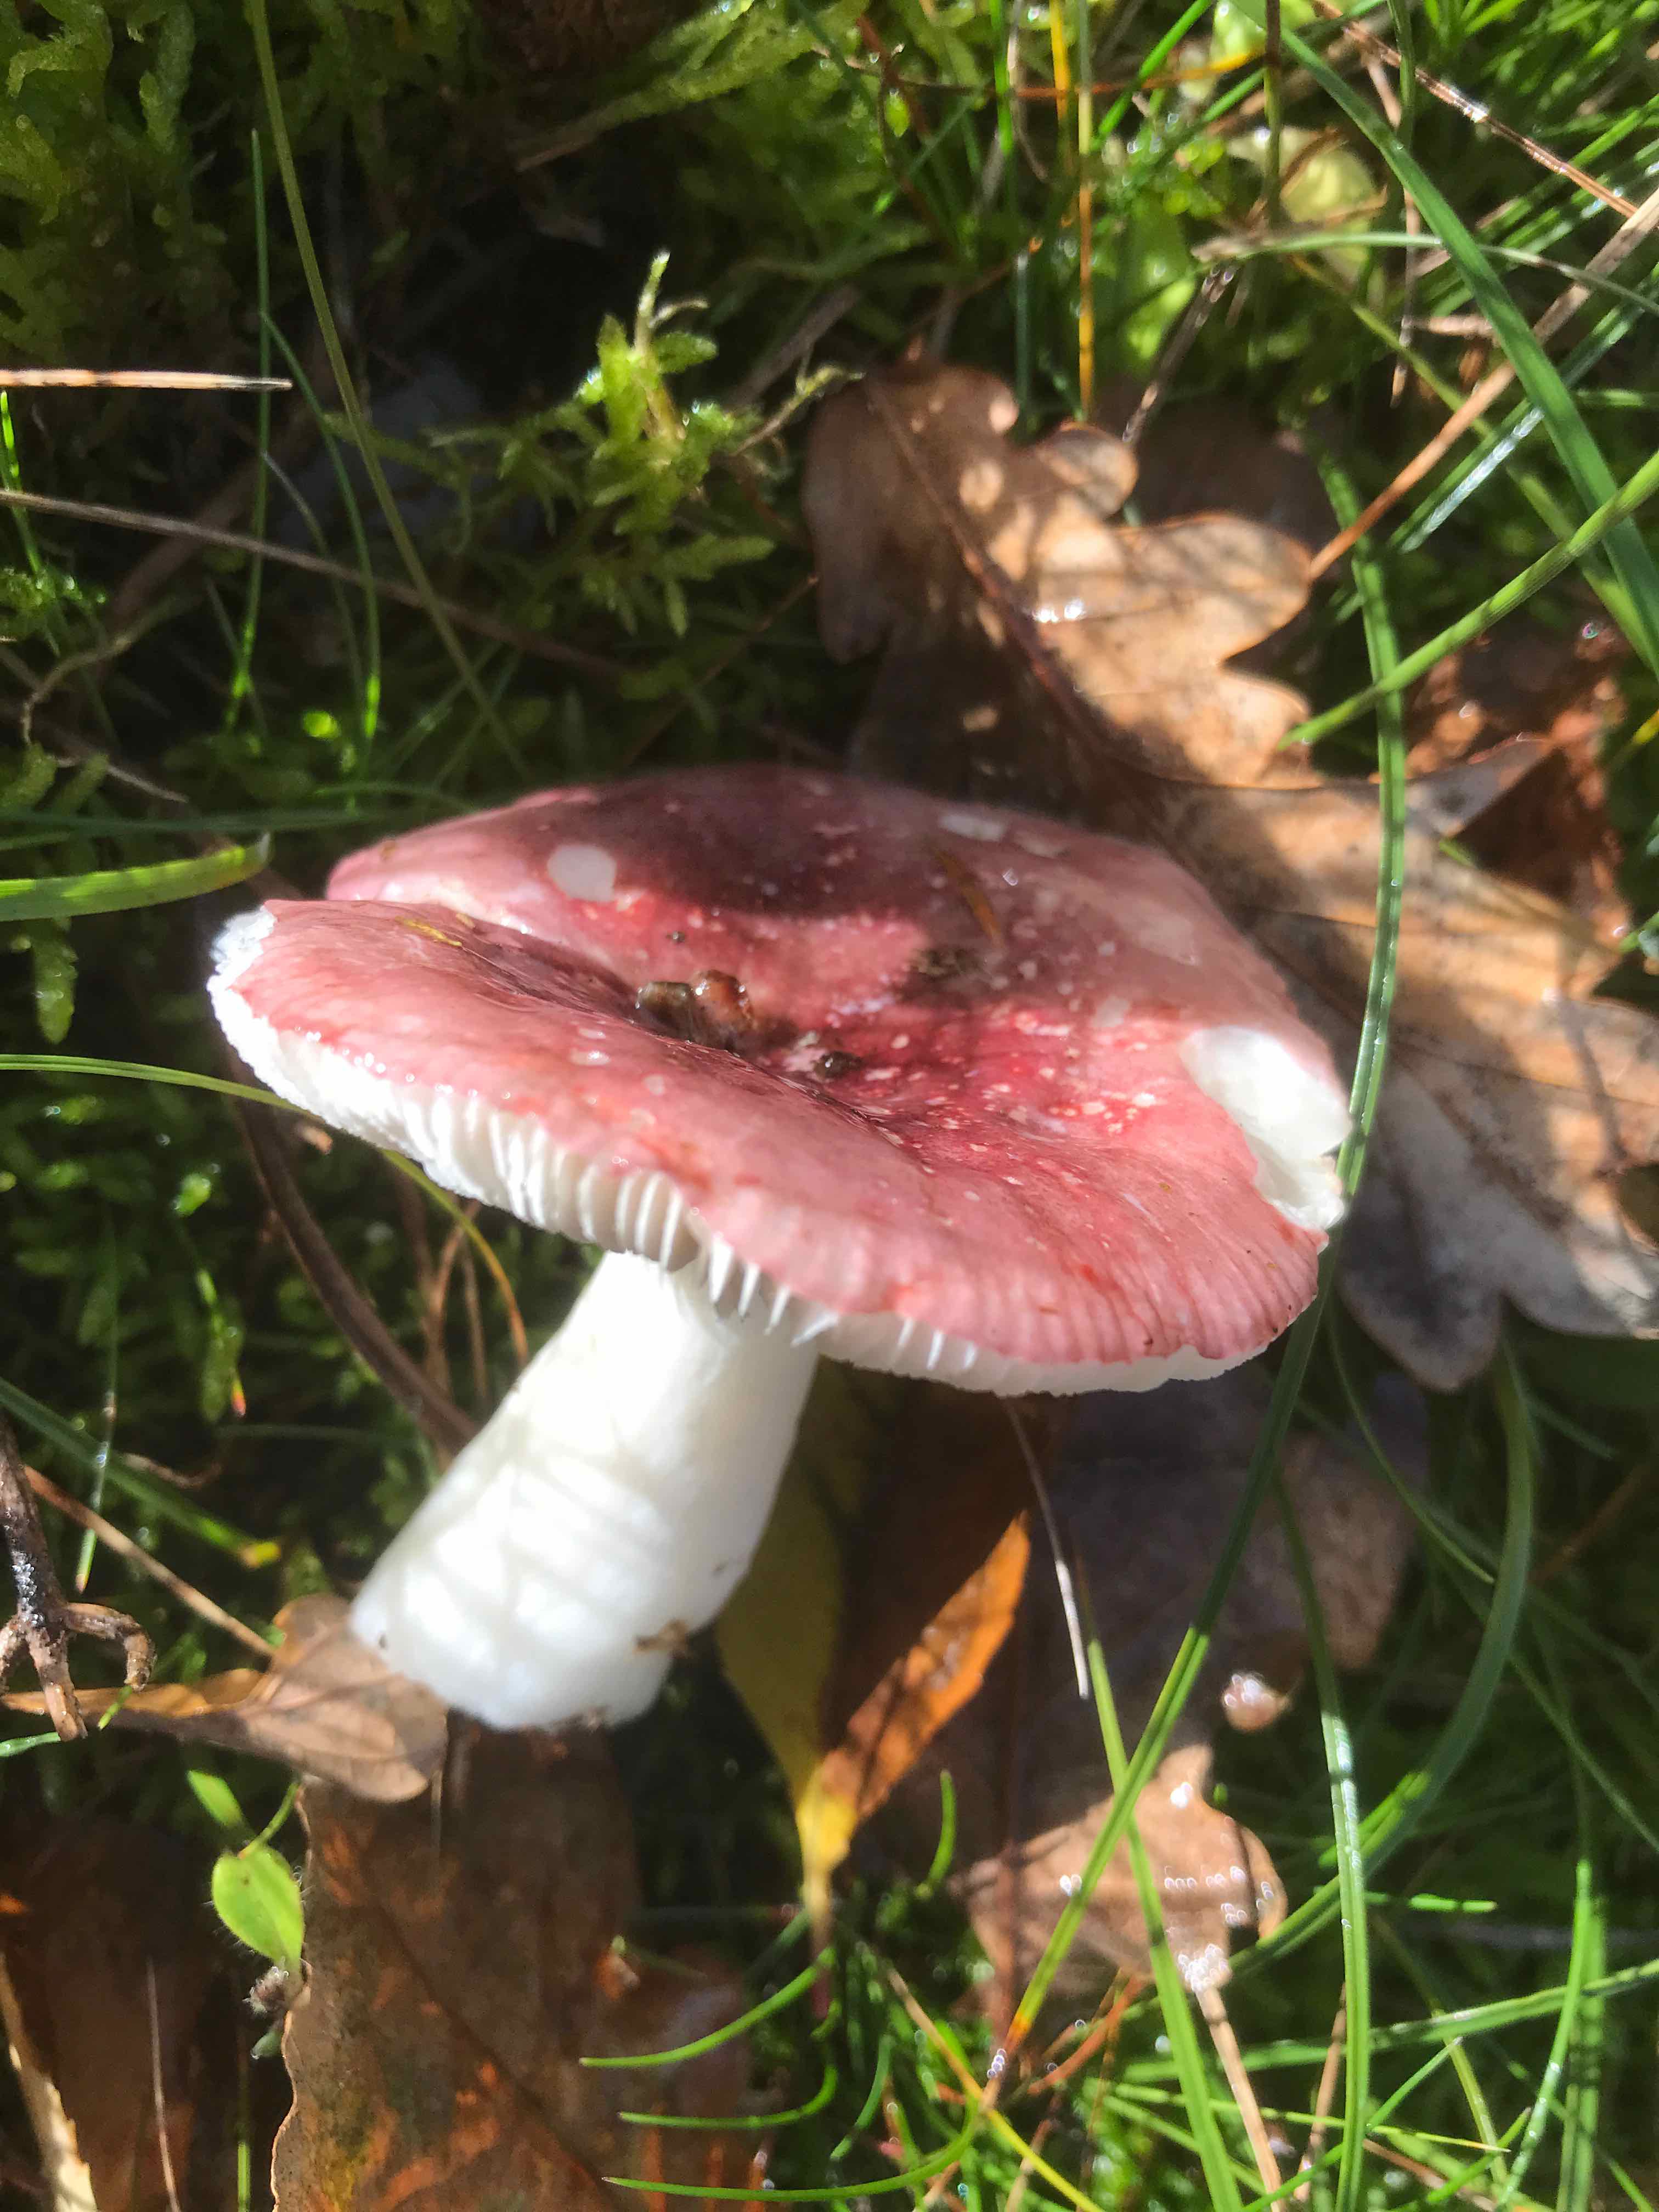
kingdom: Fungi
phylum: Basidiomycota
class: Agaricomycetes
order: Russulales
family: Russulaceae
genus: Russula
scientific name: Russula fragilis
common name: savbladet skørhat
